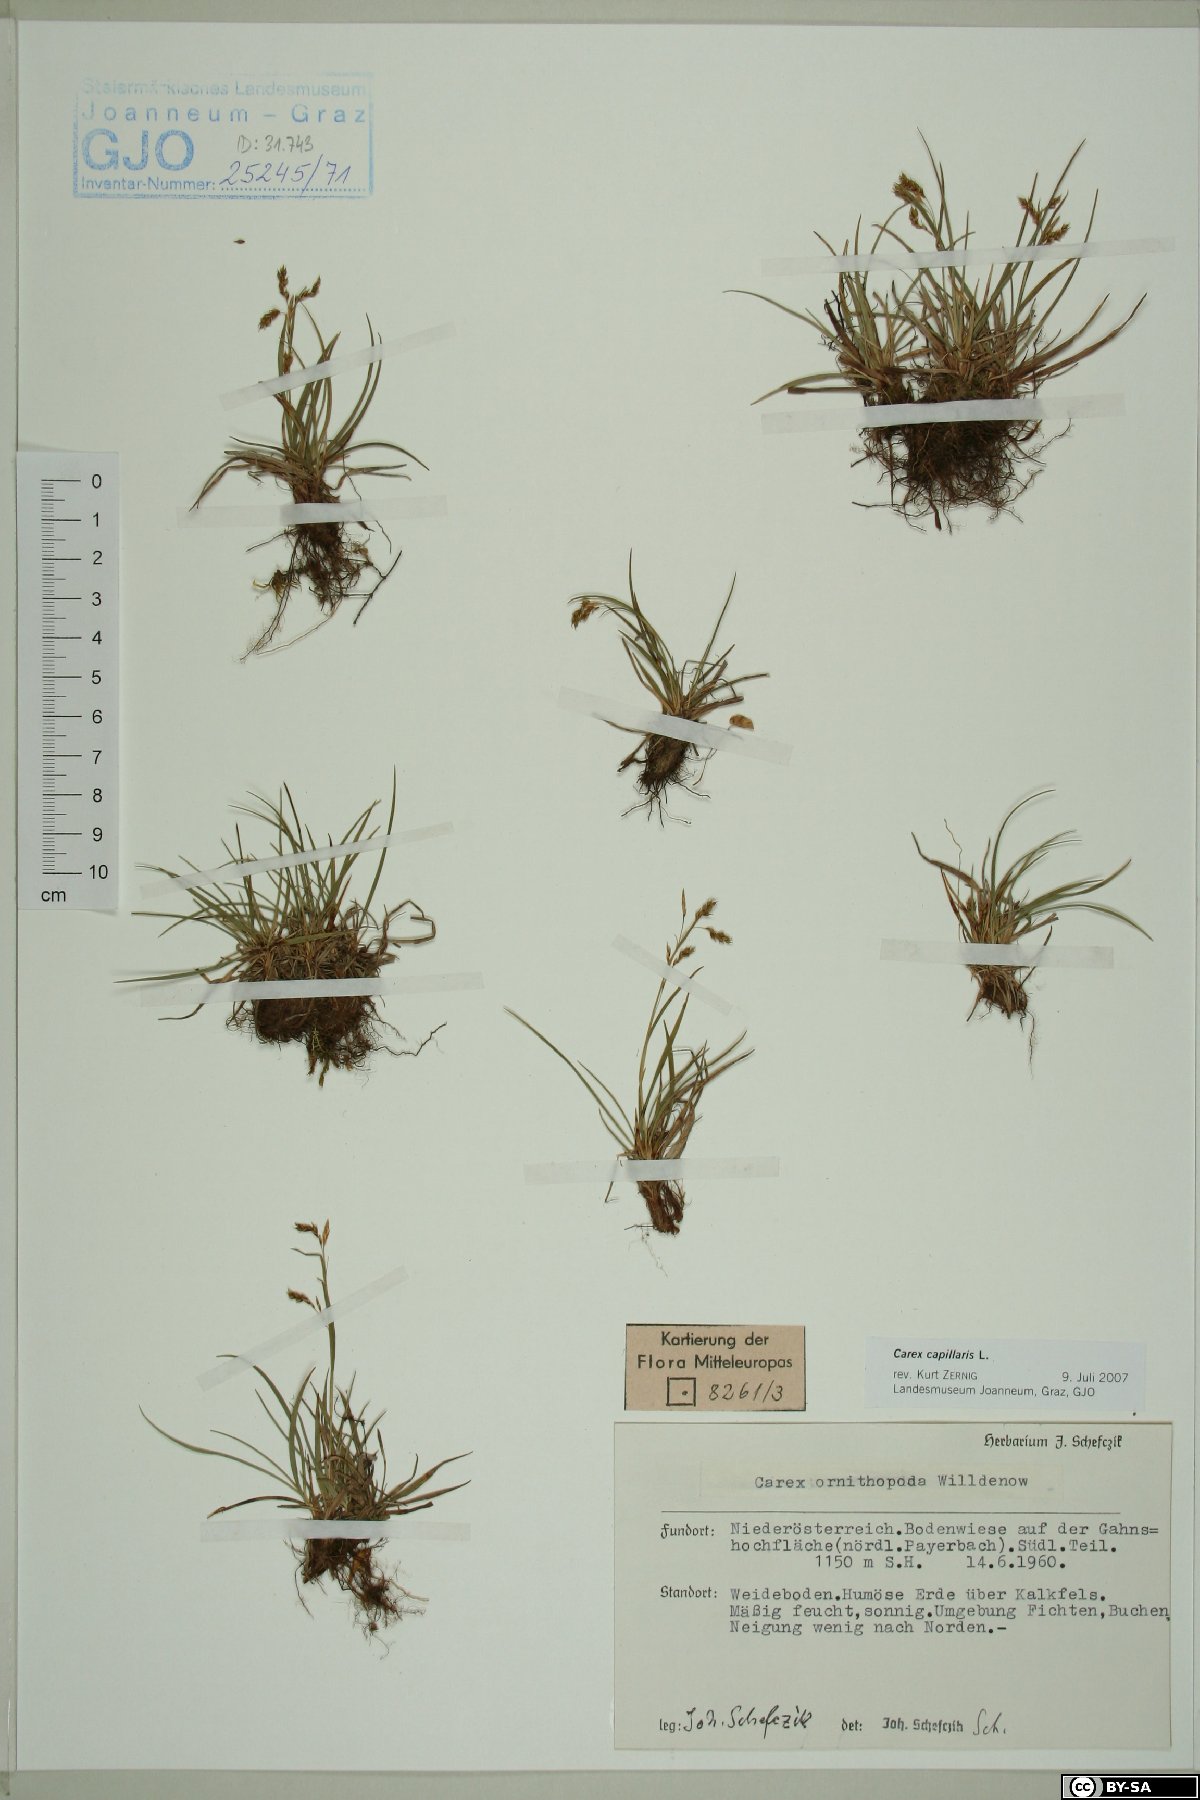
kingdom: Plantae
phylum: Tracheophyta
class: Liliopsida
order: Poales
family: Cyperaceae
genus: Carex
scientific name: Carex capillaris
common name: Hair sedge
